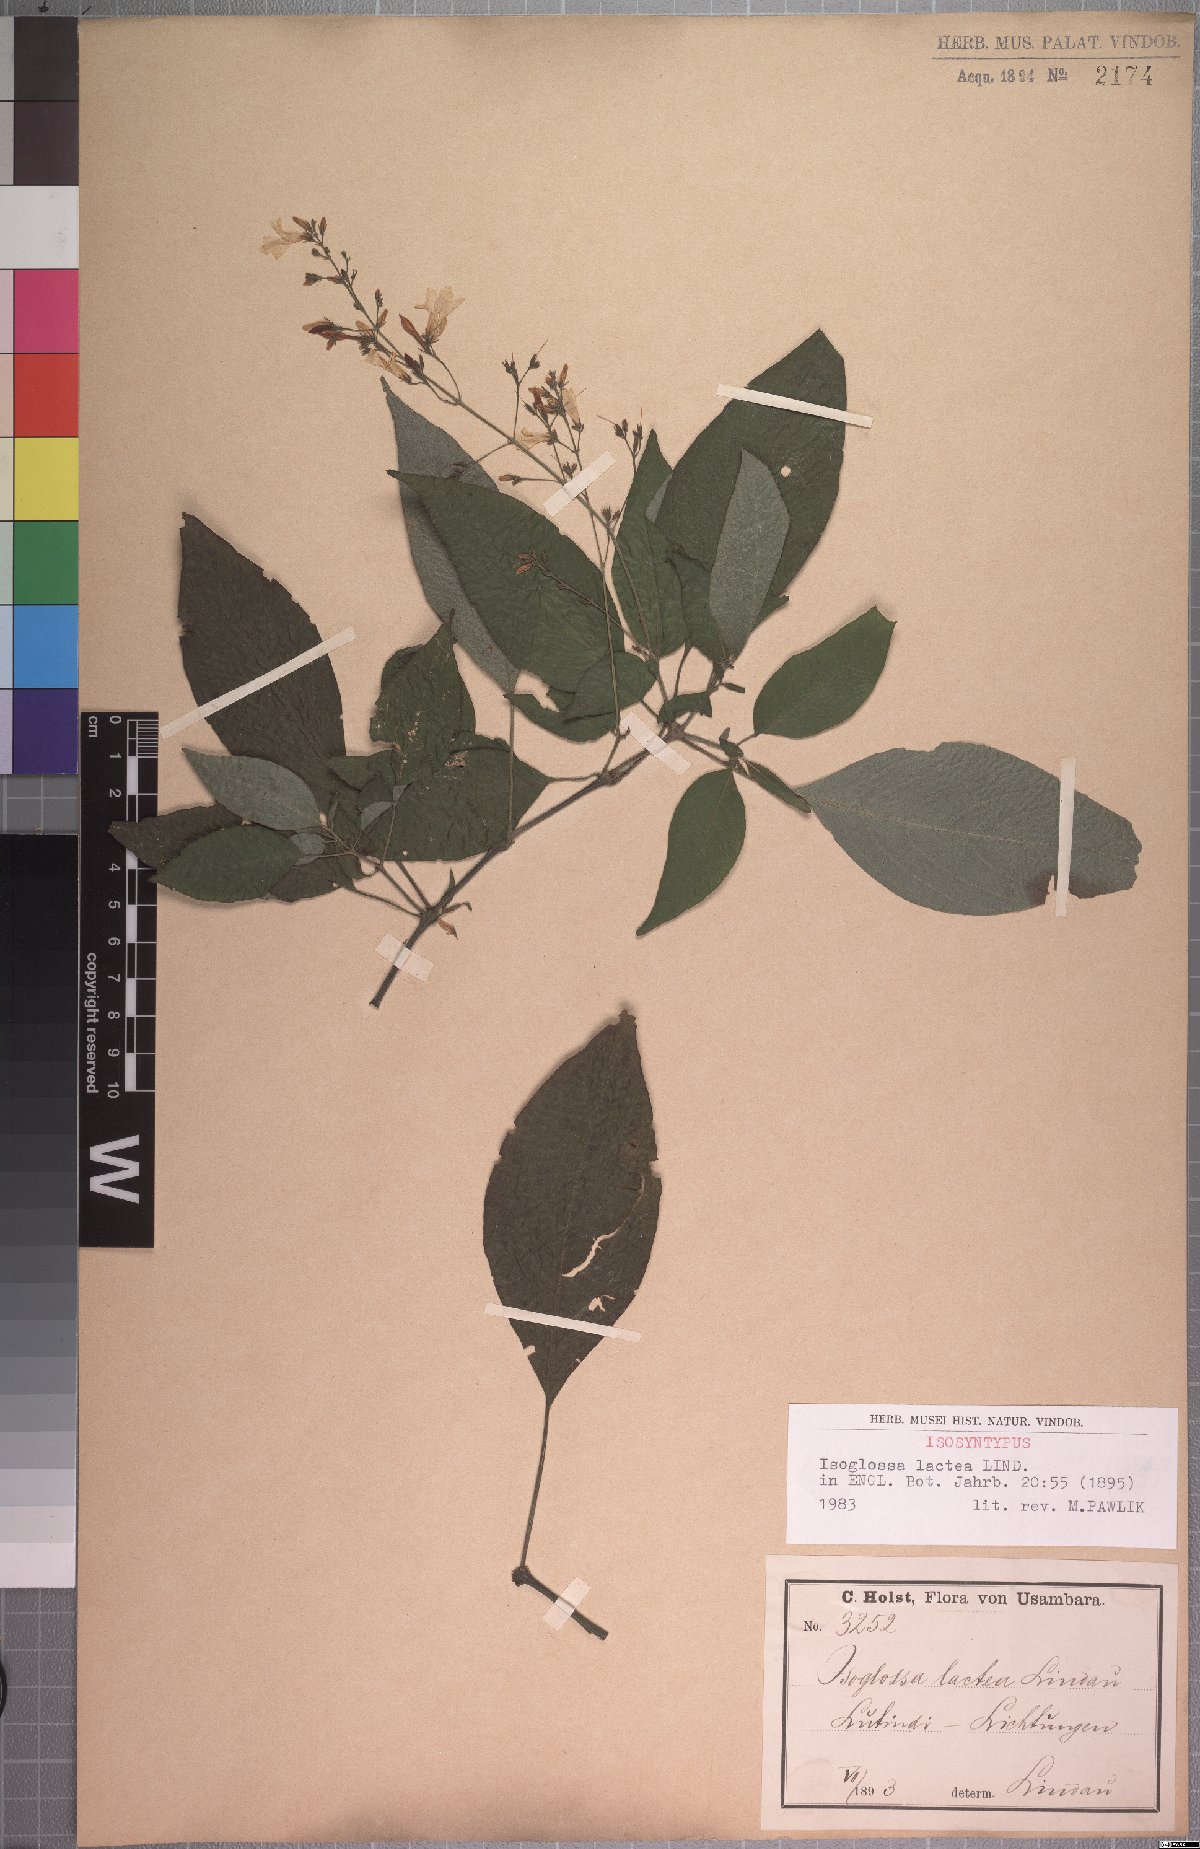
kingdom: Plantae
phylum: Tracheophyta
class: Magnoliopsida
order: Lamiales
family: Acanthaceae
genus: Isoglossa
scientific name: Isoglossa lactea
